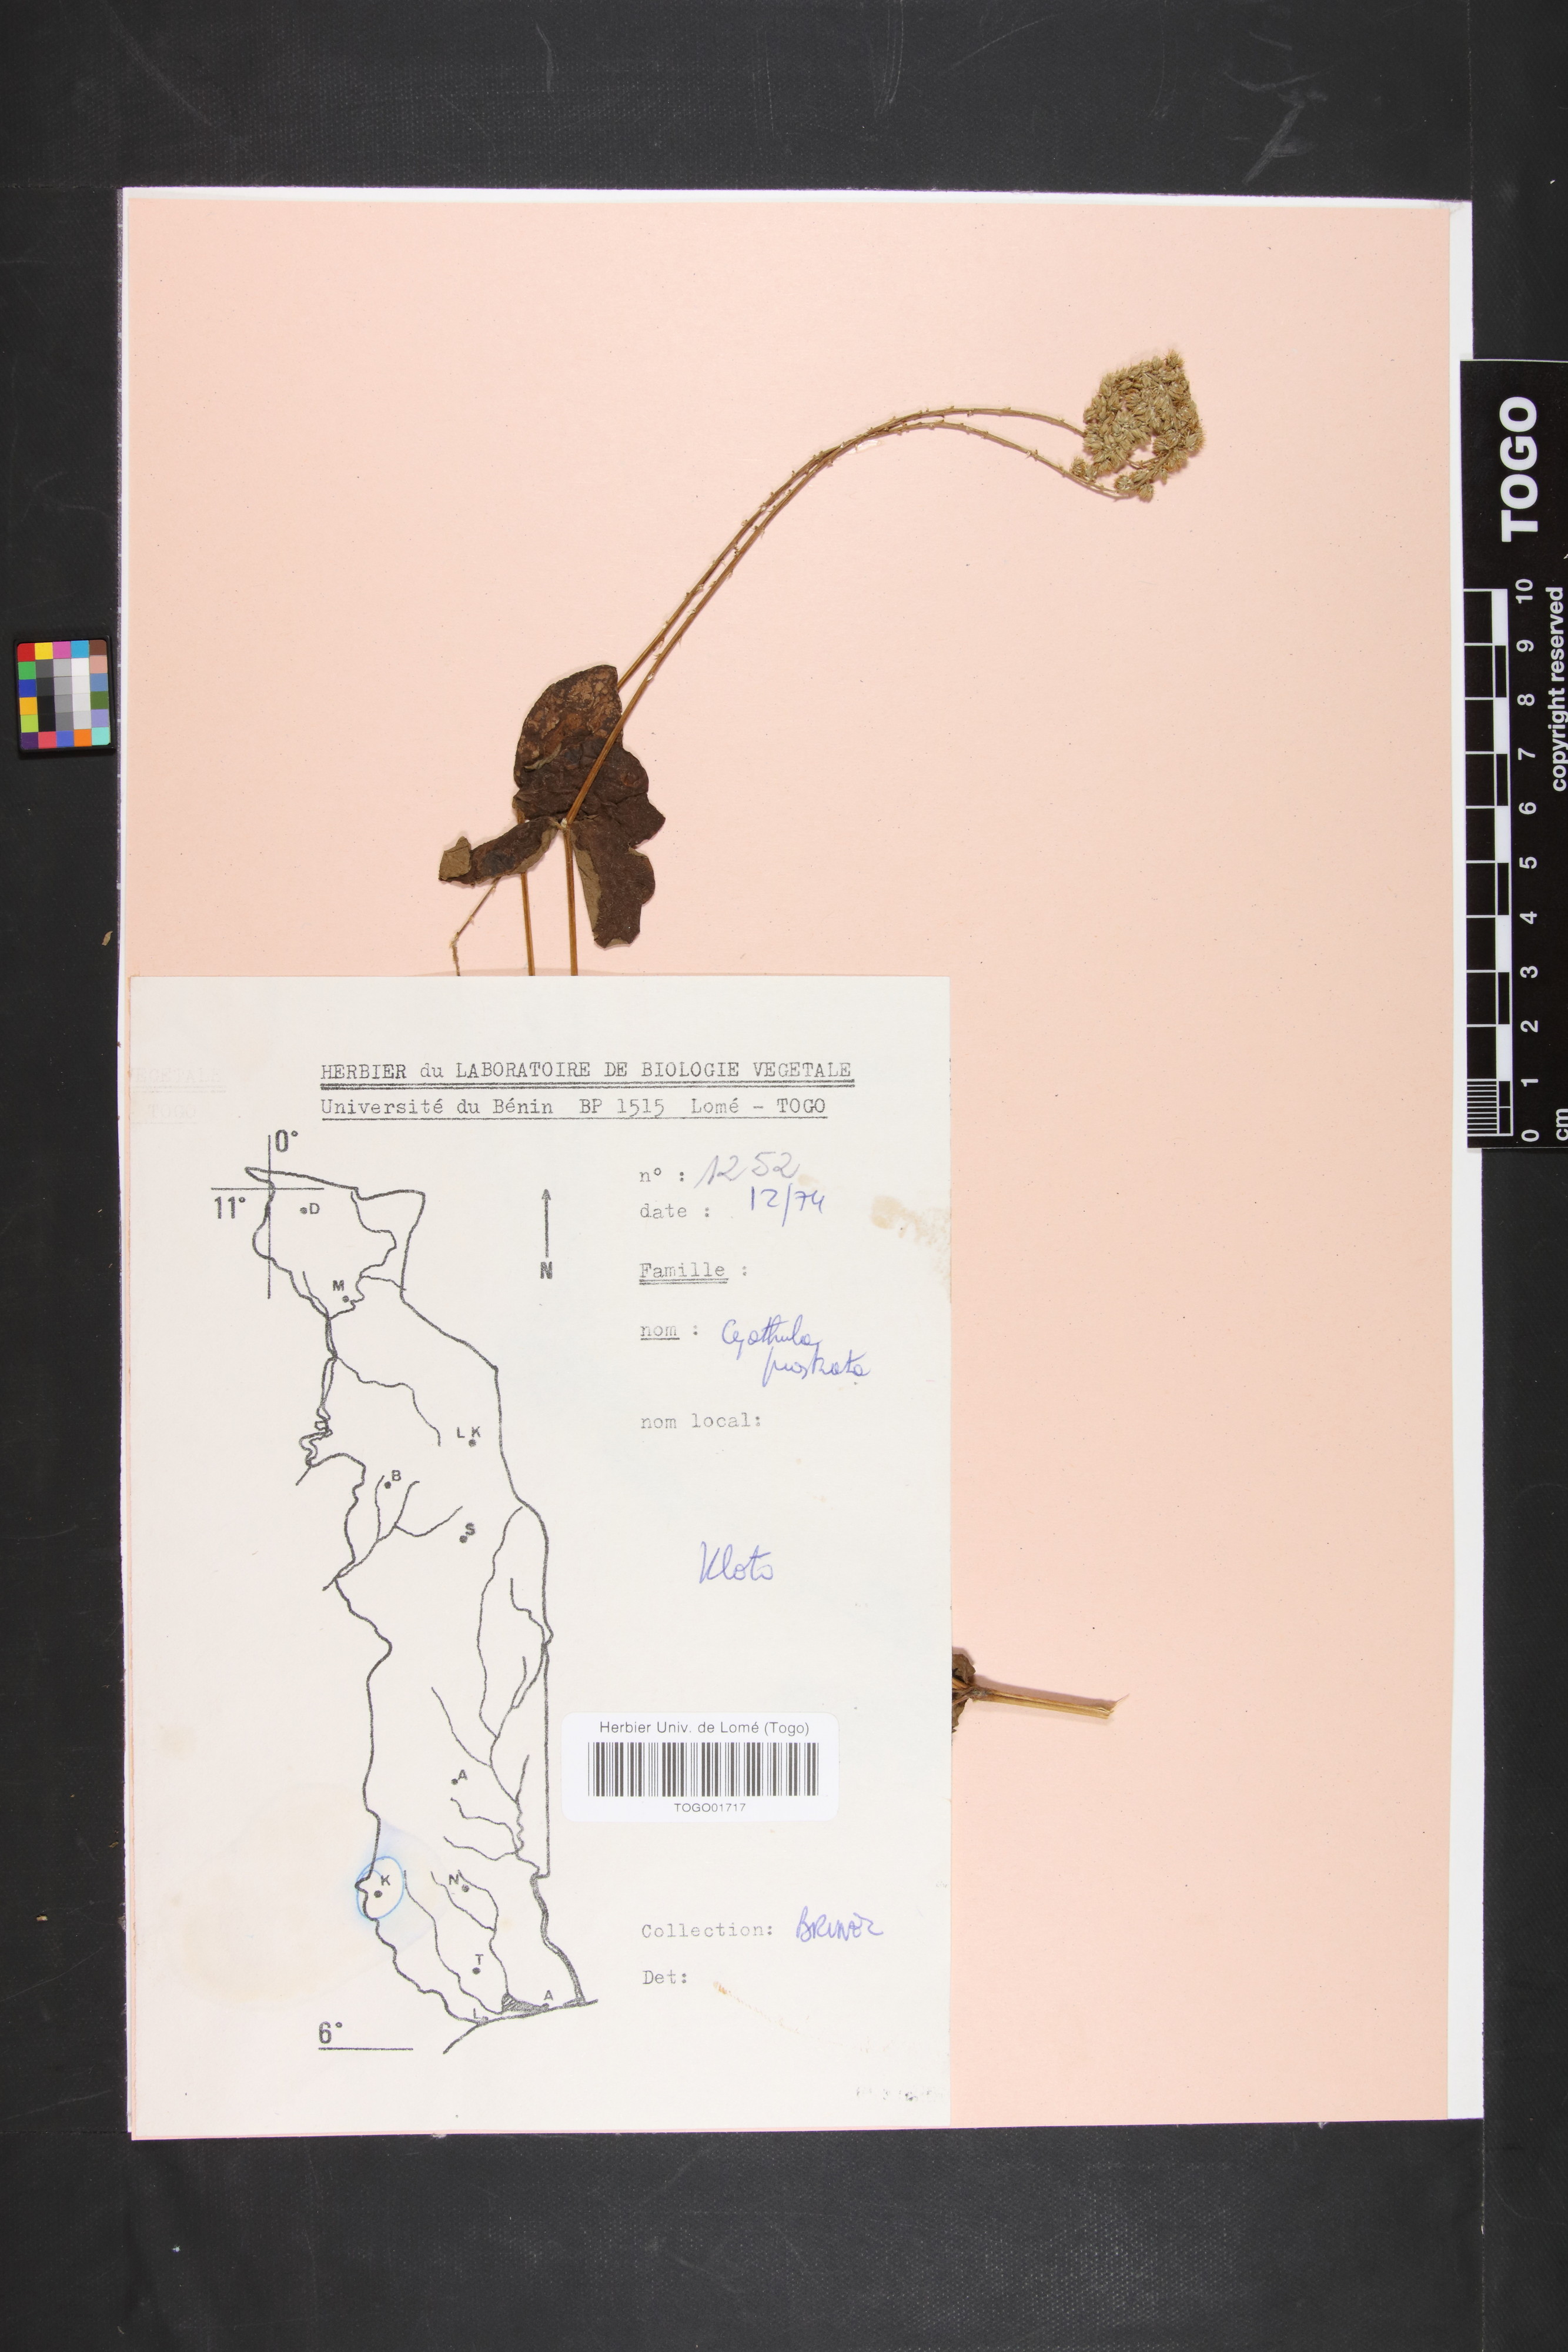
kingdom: Plantae
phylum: Tracheophyta
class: Magnoliopsida
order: Caryophyllales
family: Amaranthaceae
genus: Cyathula
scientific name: Cyathula prostrata
